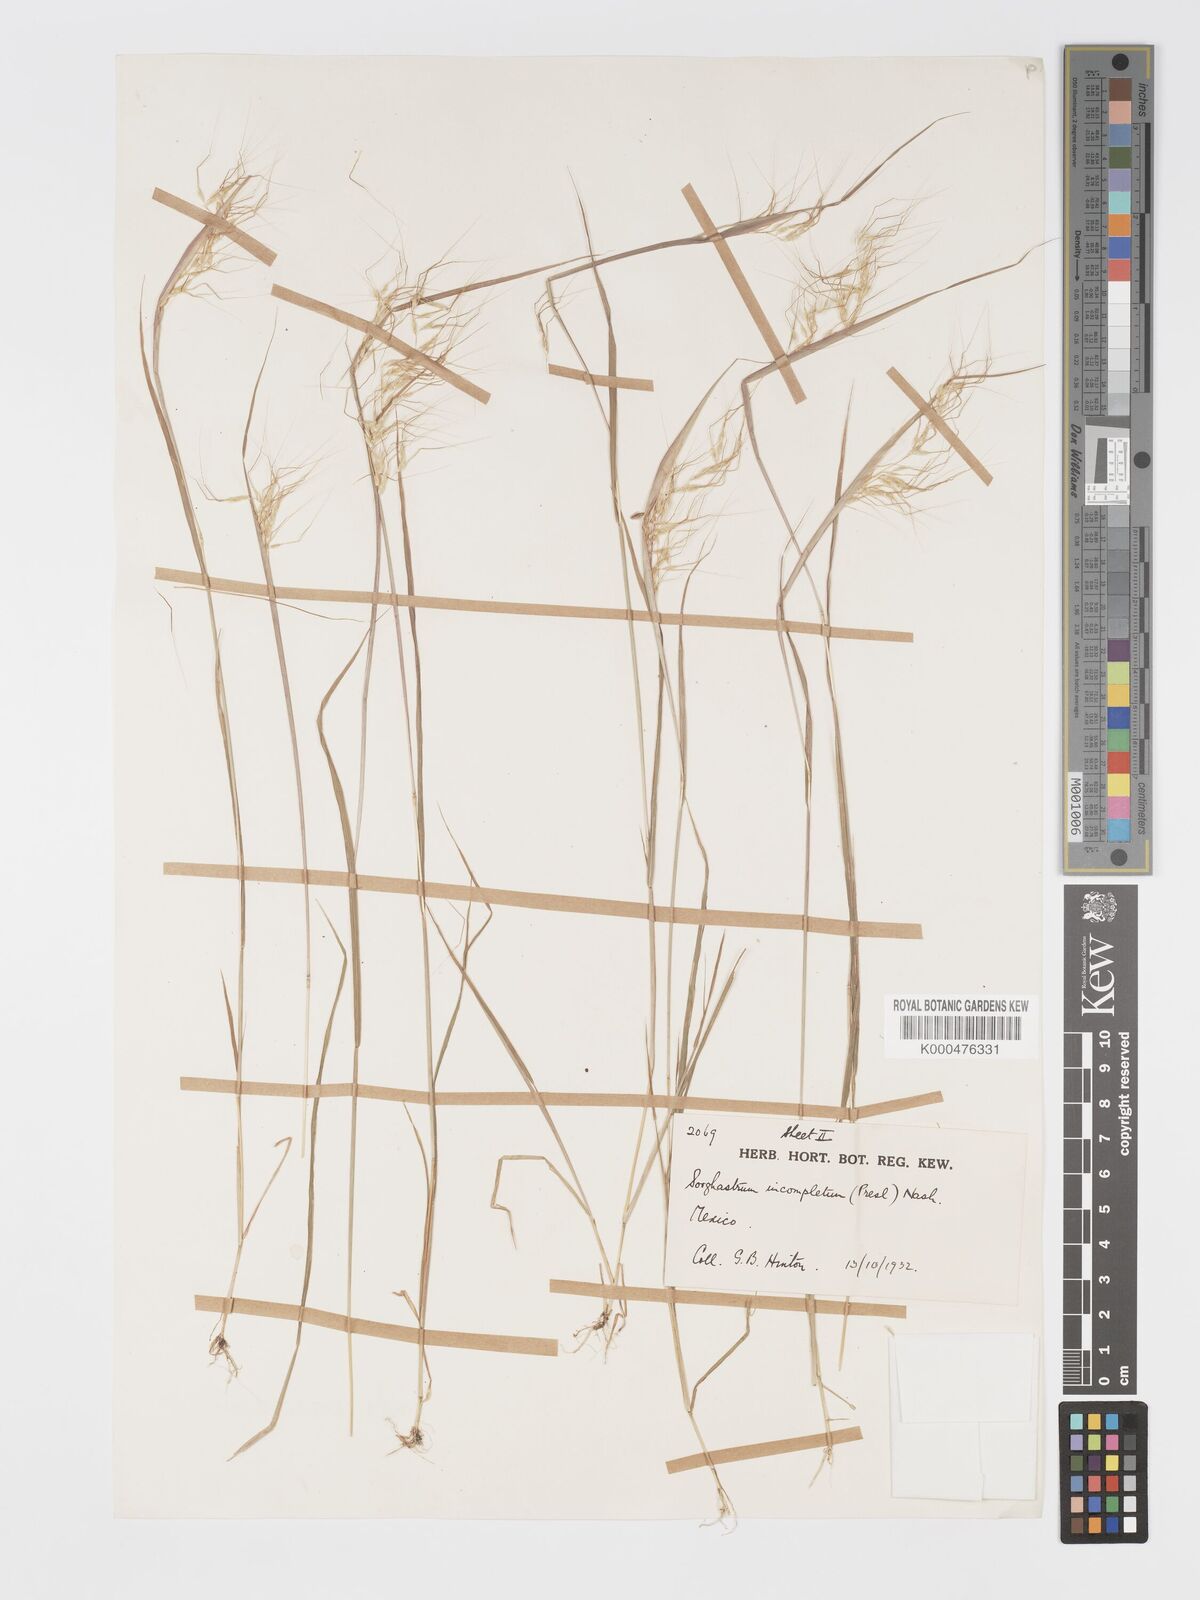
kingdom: Plantae
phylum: Tracheophyta
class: Liliopsida
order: Poales
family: Poaceae
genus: Sorghastrum
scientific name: Sorghastrum incompletum
